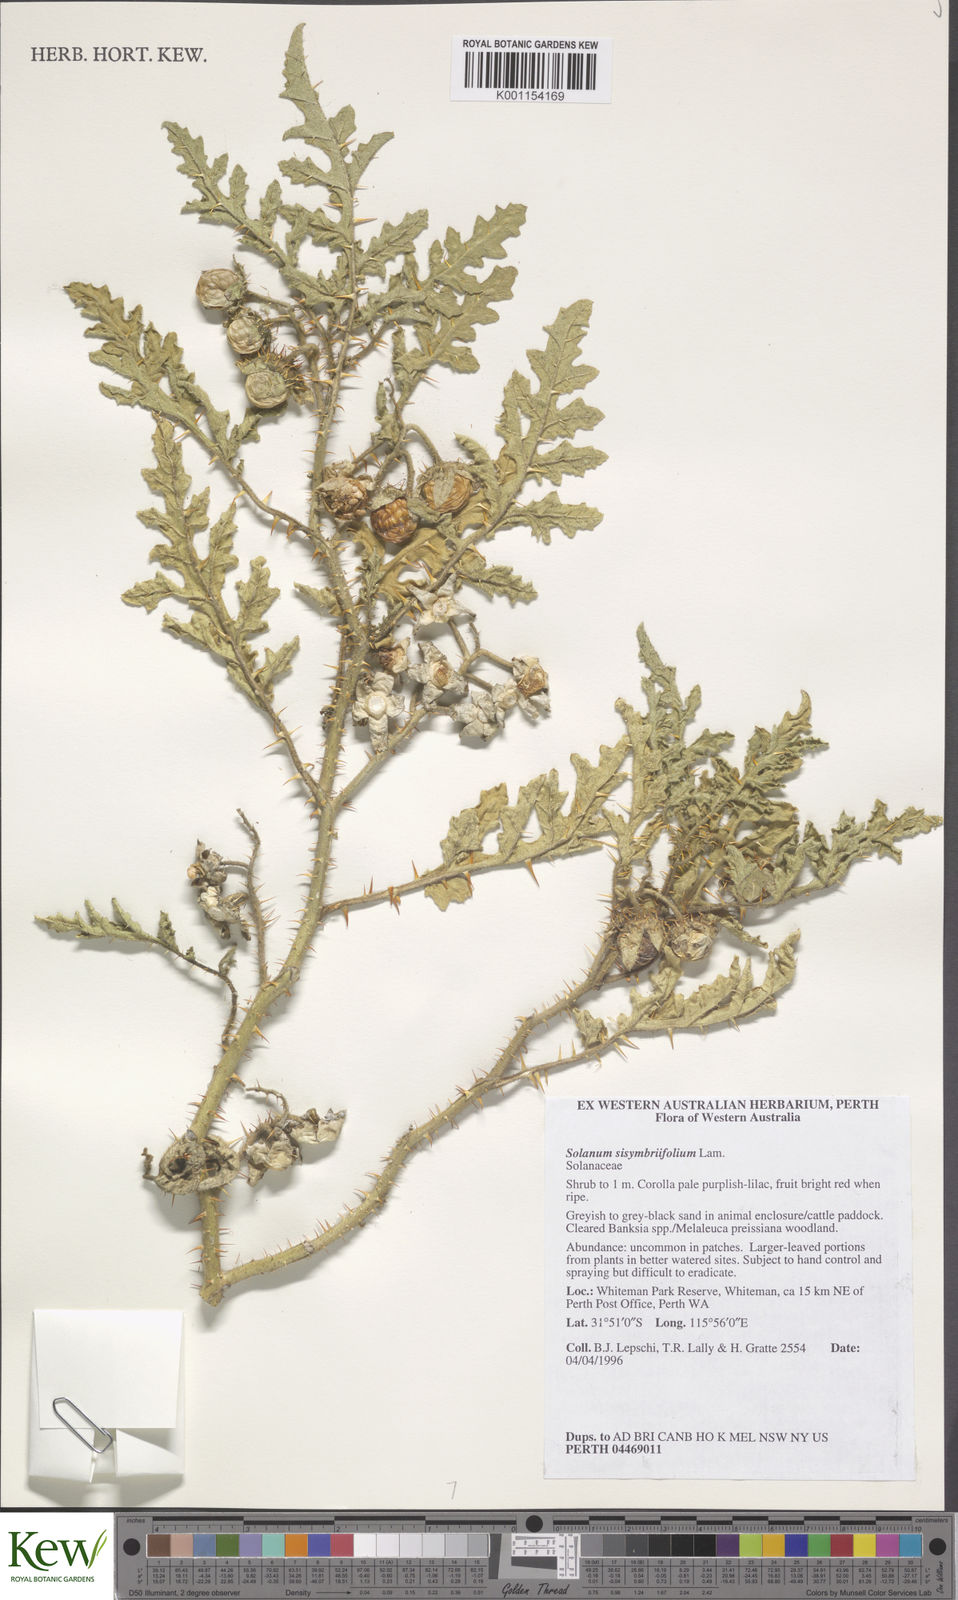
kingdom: Plantae
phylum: Tracheophyta
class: Magnoliopsida
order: Solanales
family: Solanaceae
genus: Solanum
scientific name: Solanum sisymbriifolium
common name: Red buffalo-bur
